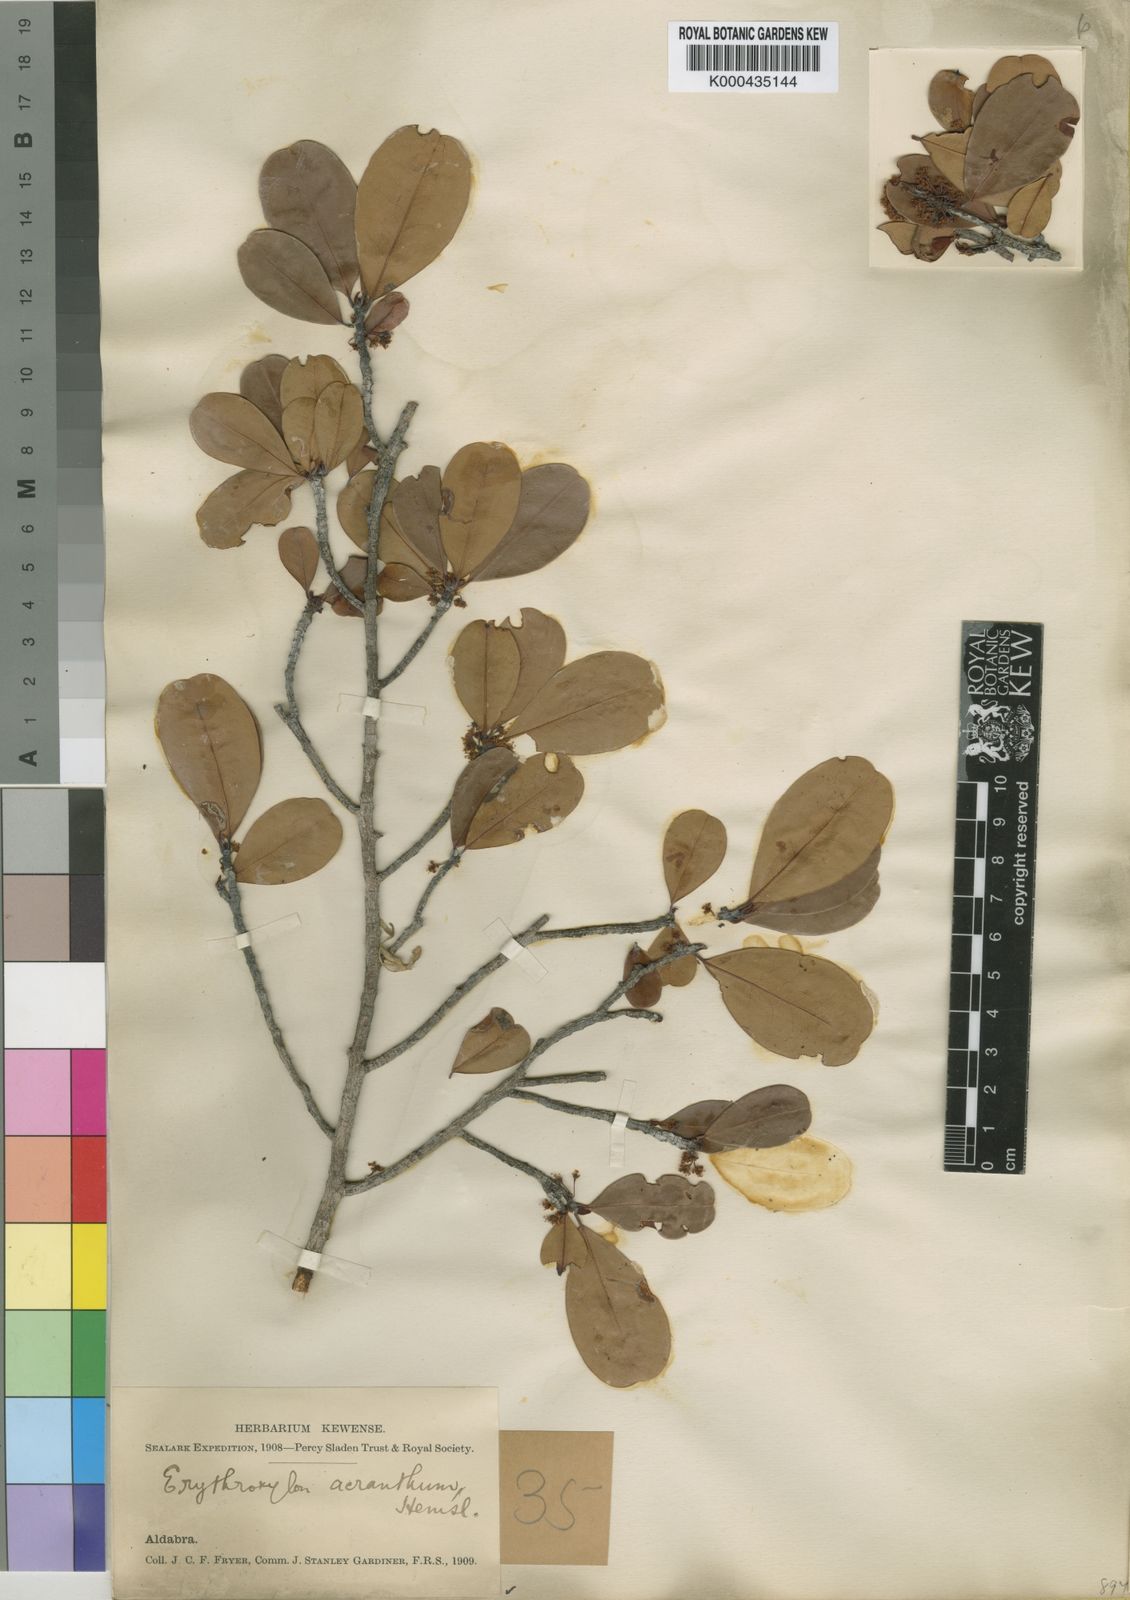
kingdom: Plantae
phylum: Tracheophyta
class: Magnoliopsida
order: Malpighiales
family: Erythroxylaceae
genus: Erythroxylum
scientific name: Erythroxylum platyclados
